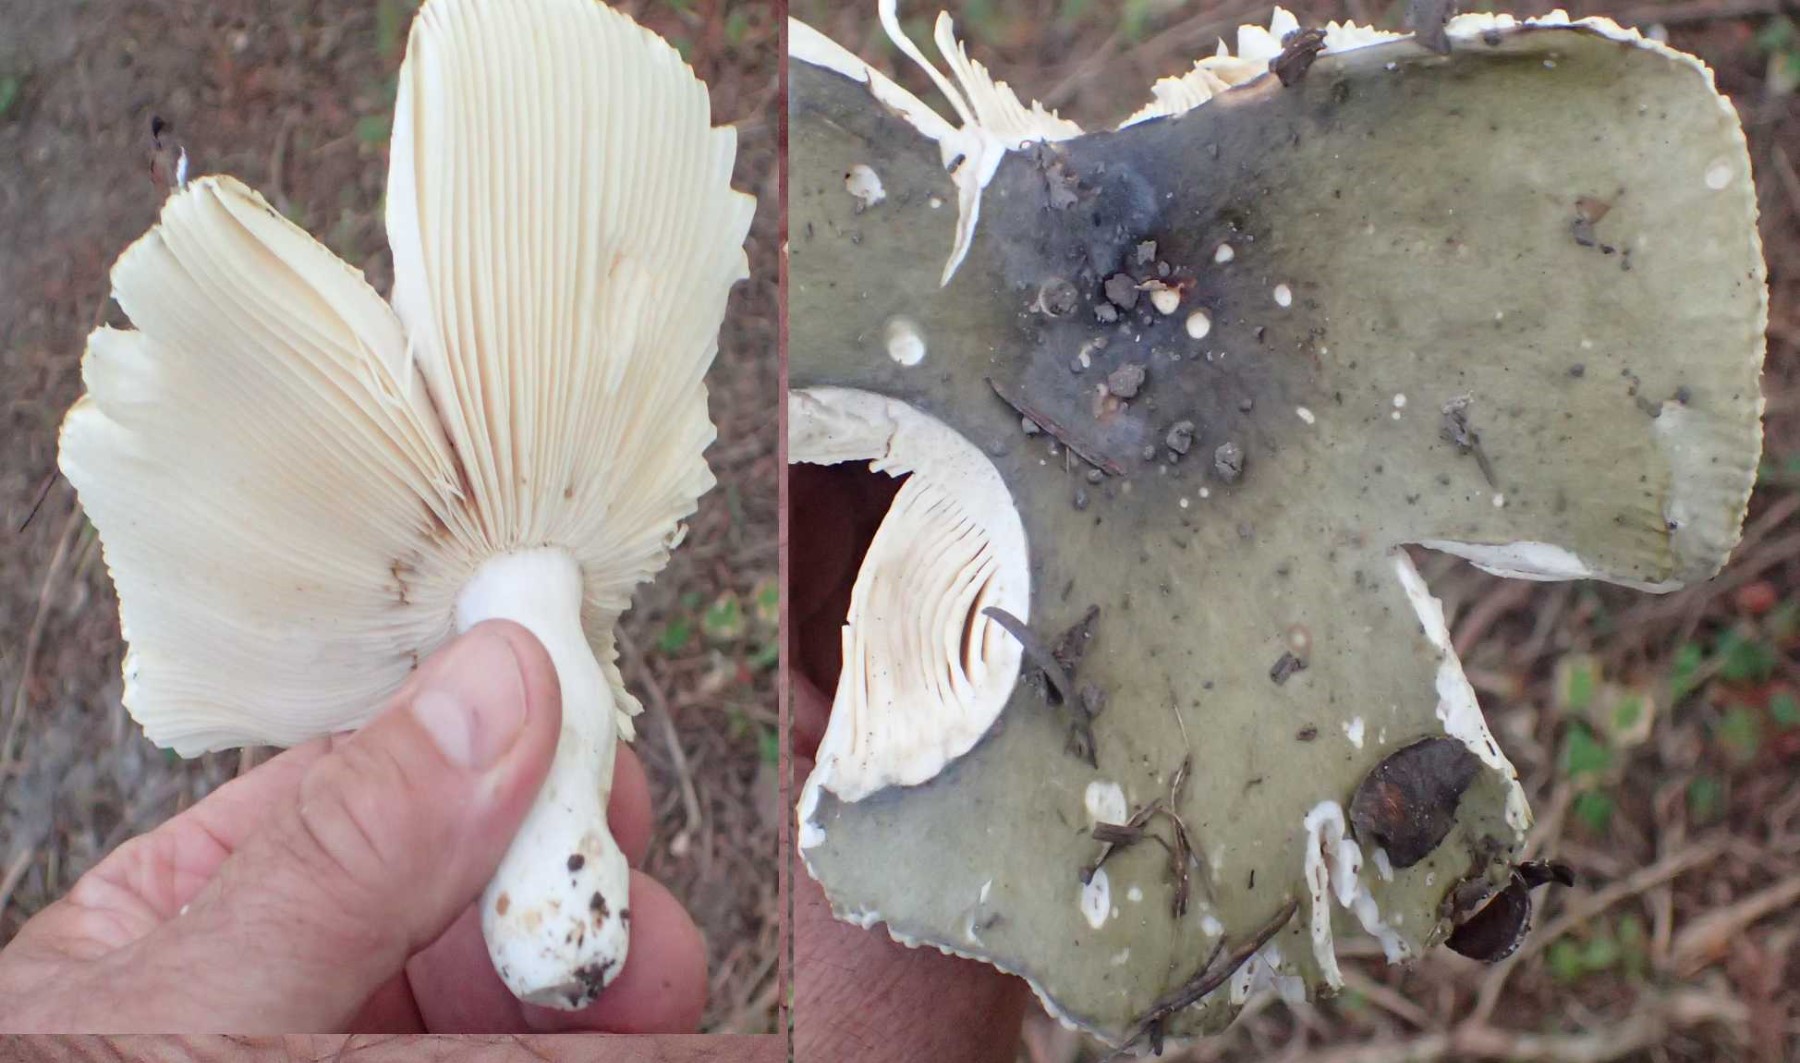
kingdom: Fungi
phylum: Basidiomycota
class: Agaricomycetes
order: Russulales
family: Russulaceae
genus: Russula
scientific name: Russula aeruginea
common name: græsgrøn skørhat
